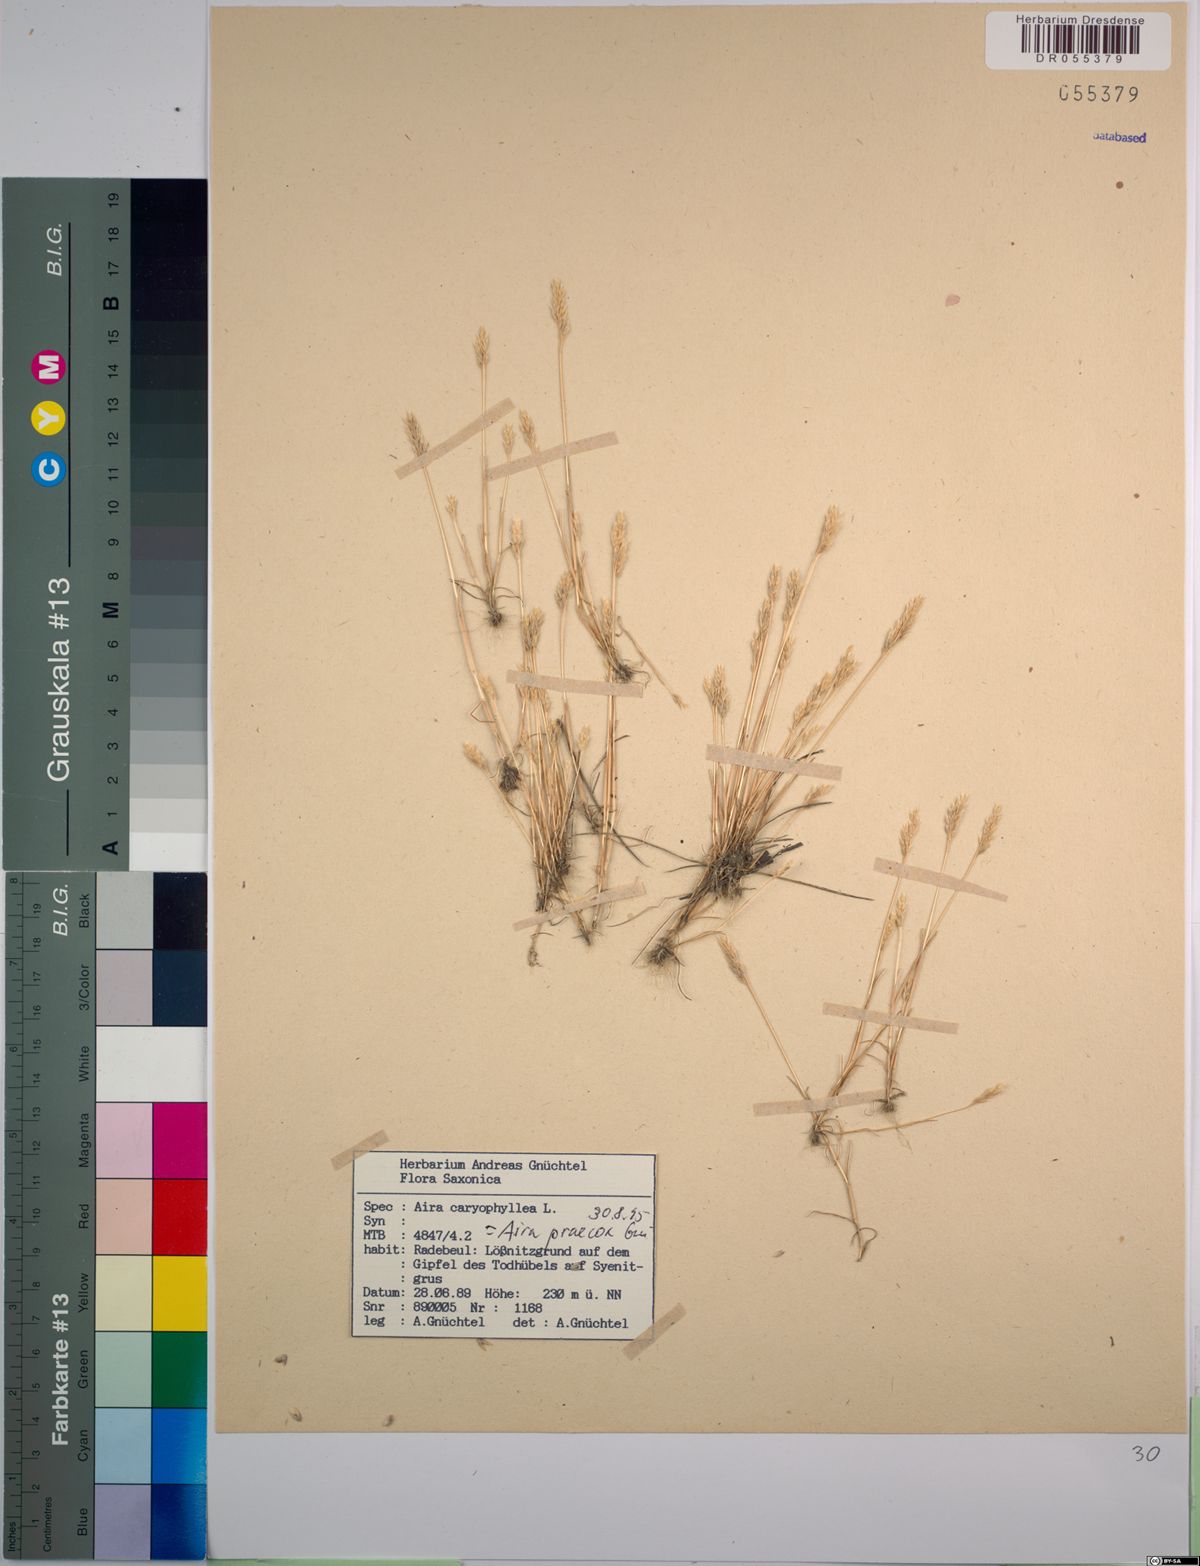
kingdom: Plantae
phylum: Tracheophyta
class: Liliopsida
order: Poales
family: Poaceae
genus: Aira
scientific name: Aira praecox
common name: Early hair-grass
